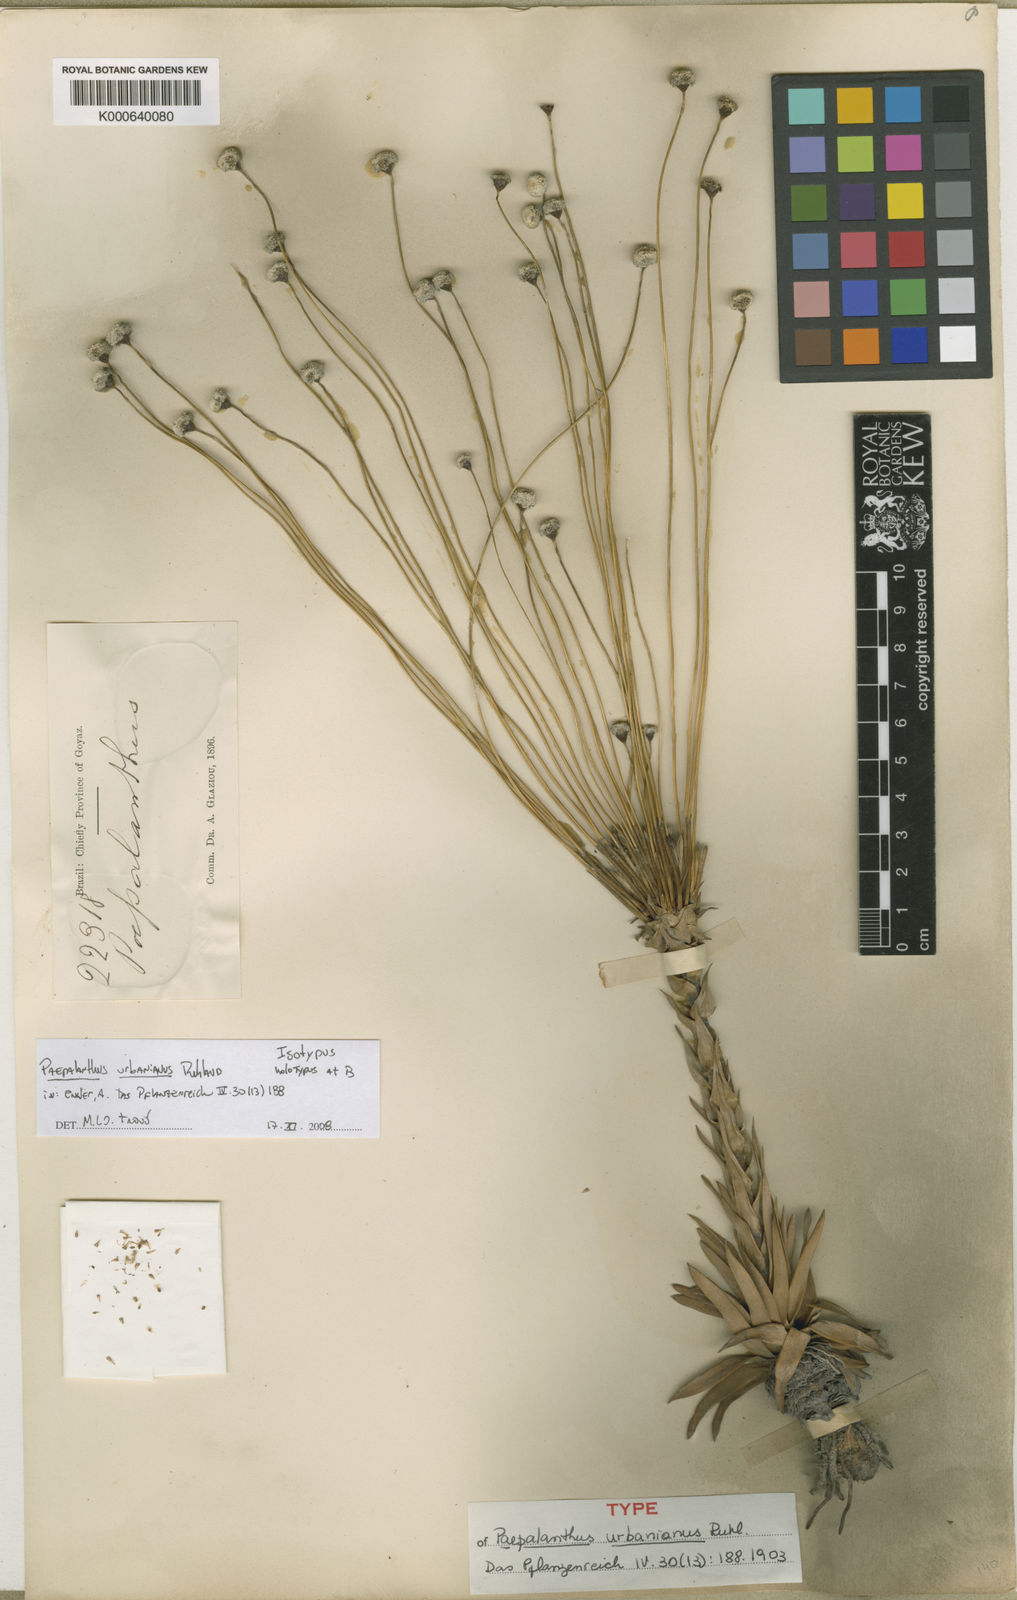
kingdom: Plantae
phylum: Tracheophyta
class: Liliopsida
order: Poales
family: Eriocaulaceae
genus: Paepalanthus
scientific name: Paepalanthus urbanianus
